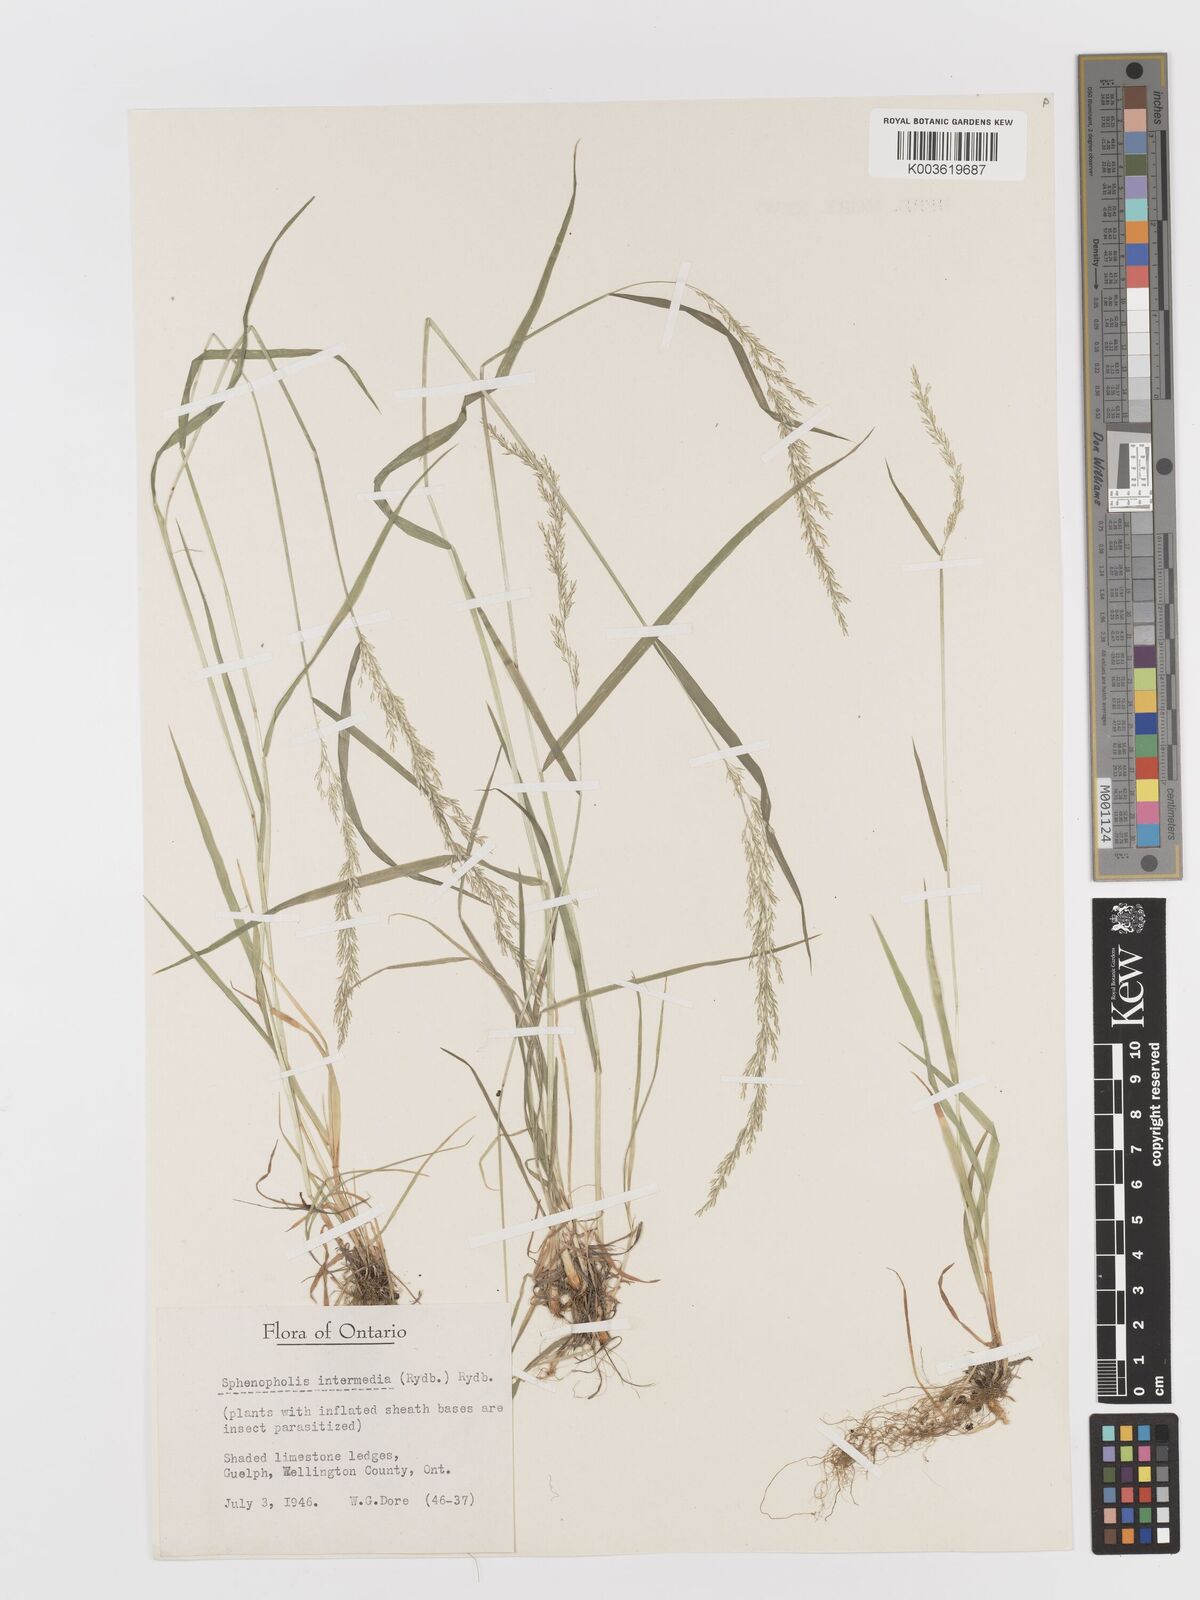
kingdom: Plantae
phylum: Tracheophyta
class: Liliopsida
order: Poales
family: Poaceae
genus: Sphenopholis
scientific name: Sphenopholis obtusata
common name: Prairie grass
